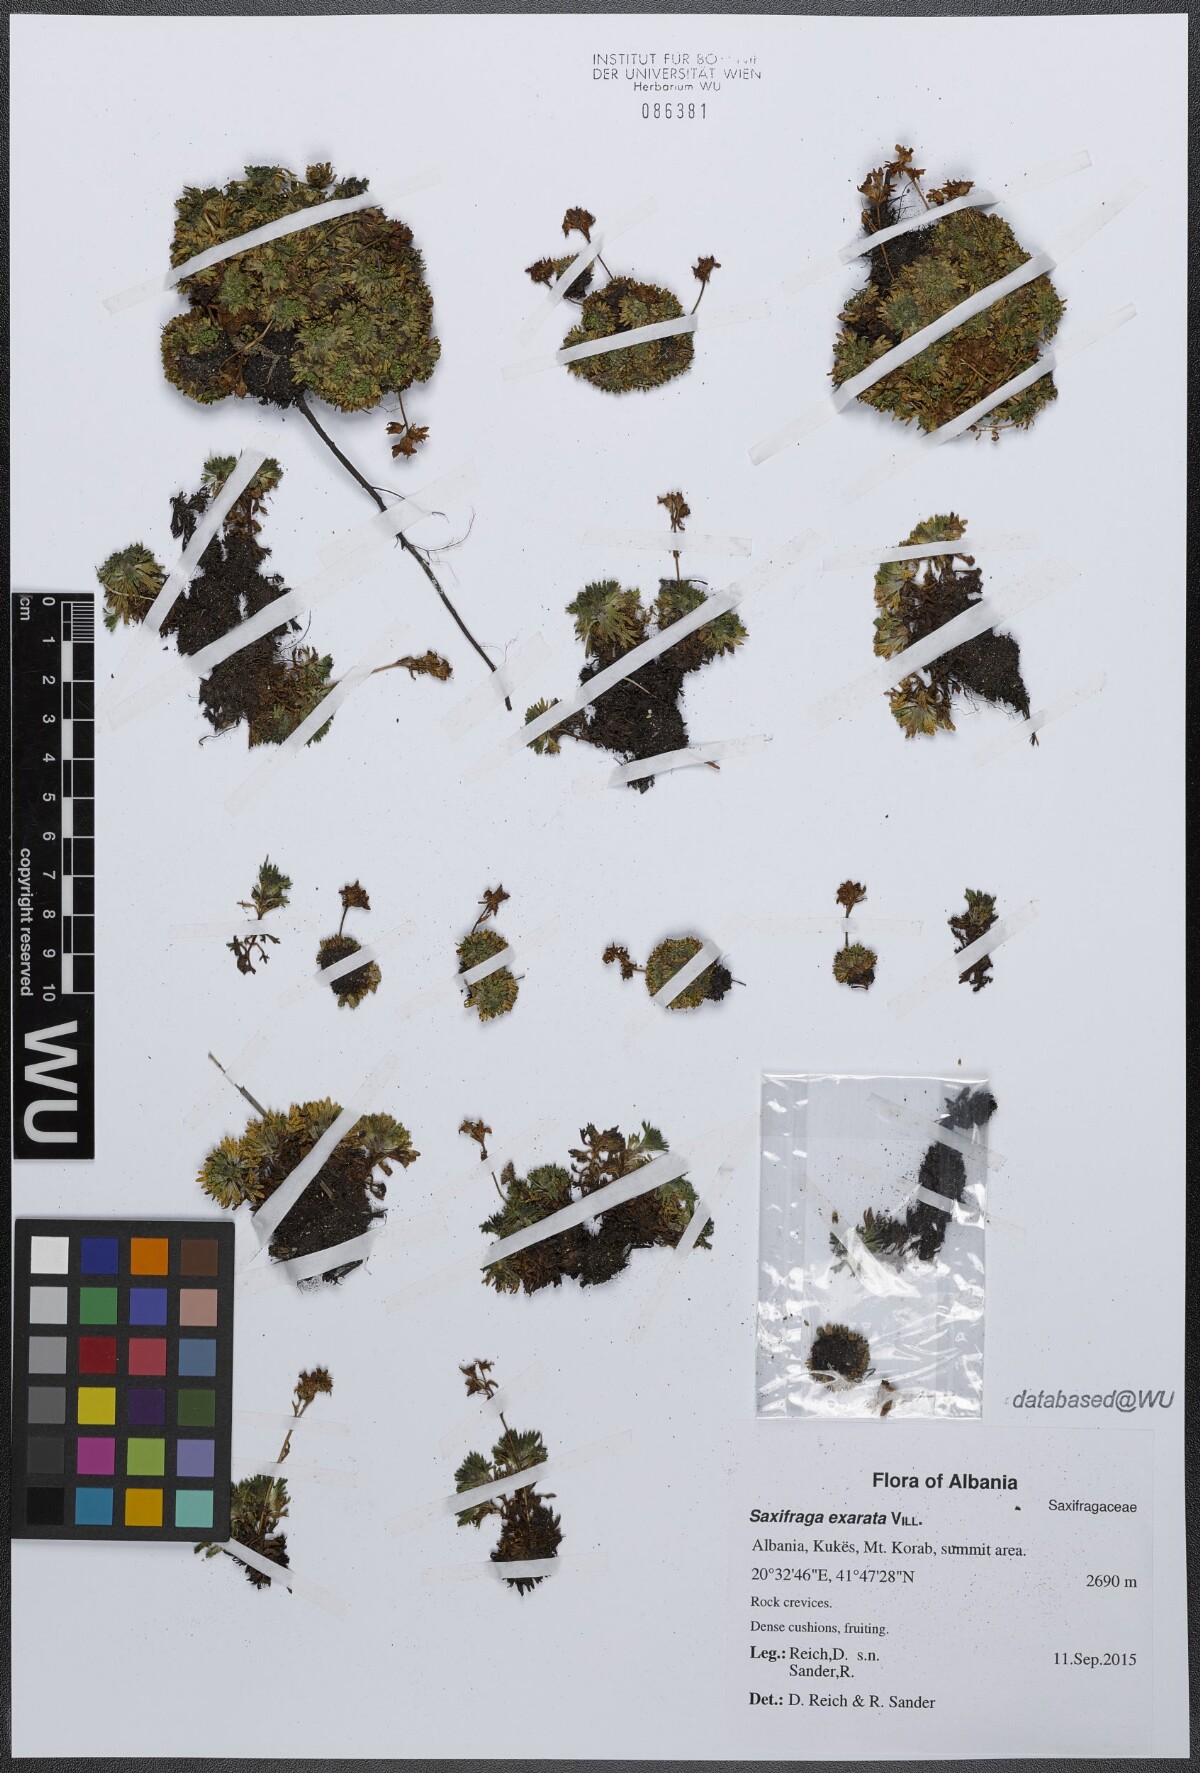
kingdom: Plantae
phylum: Tracheophyta
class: Magnoliopsida
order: Saxifragales
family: Saxifragaceae
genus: Saxifraga
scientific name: Saxifraga exarata
